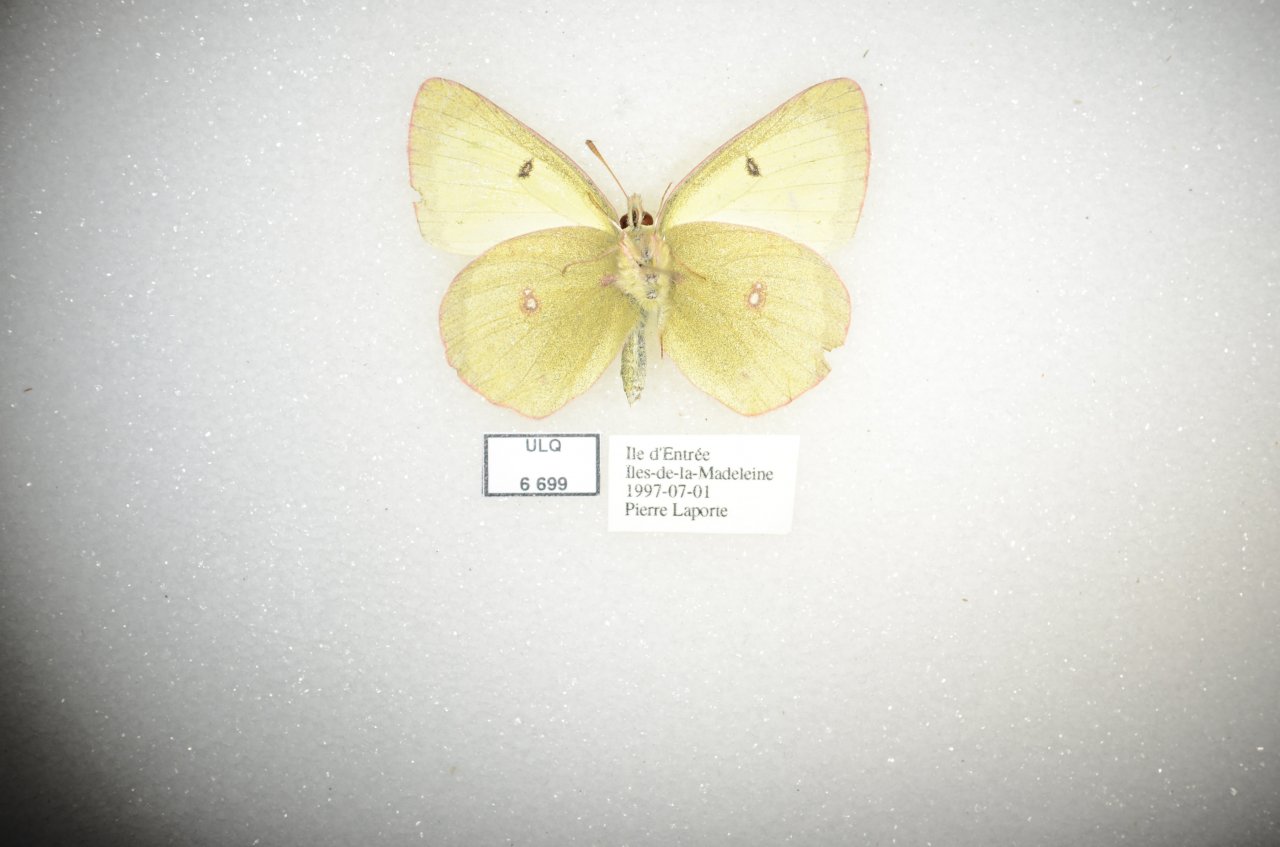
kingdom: Animalia
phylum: Arthropoda
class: Insecta
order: Lepidoptera
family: Pieridae
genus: Colias
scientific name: Colias philodice
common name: Clouded Sulphur
